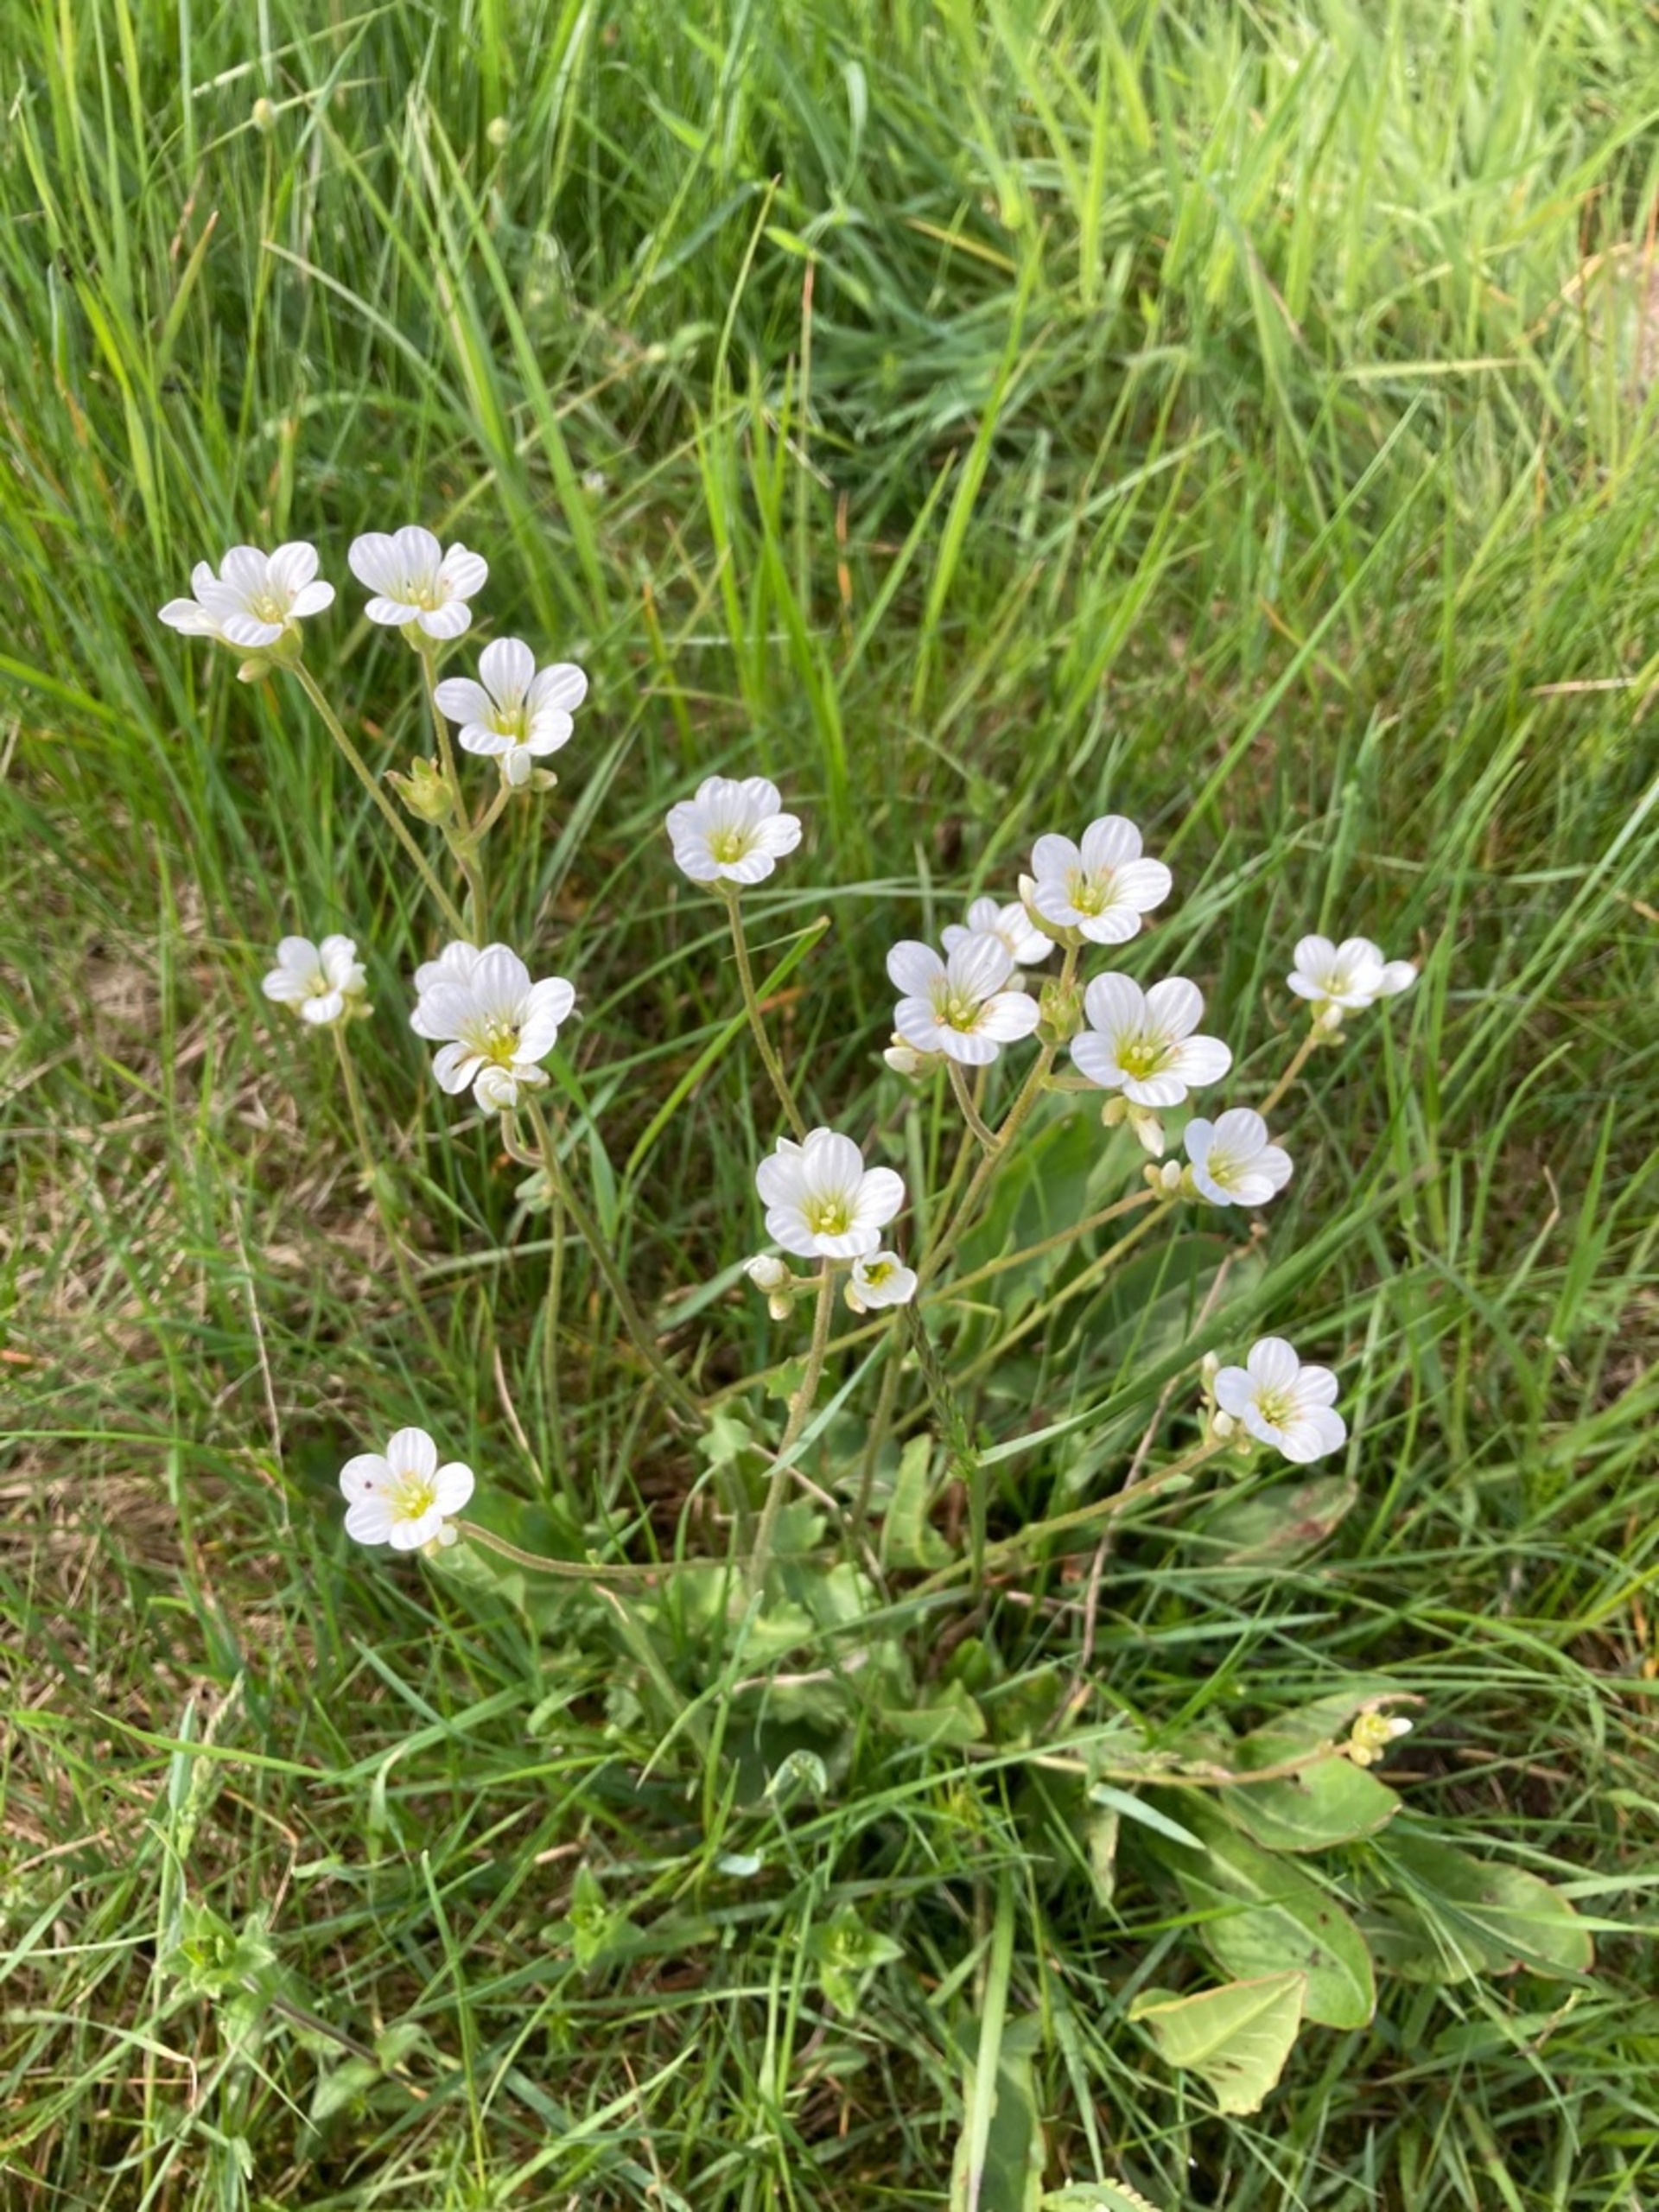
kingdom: Plantae
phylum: Tracheophyta
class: Magnoliopsida
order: Saxifragales
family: Saxifragaceae
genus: Saxifraga
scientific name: Saxifraga granulata
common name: Kornet stenbræk
